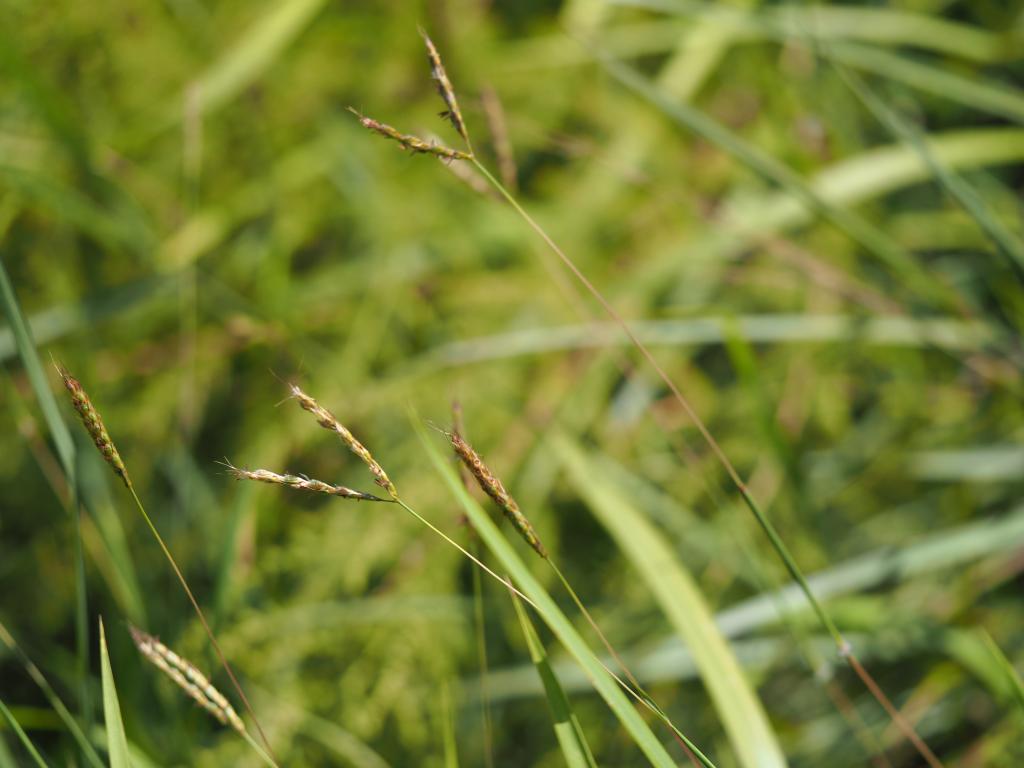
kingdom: Plantae
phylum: Tracheophyta
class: Liliopsida
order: Poales
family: Poaceae
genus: Polytrias
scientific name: Polytrias indica
